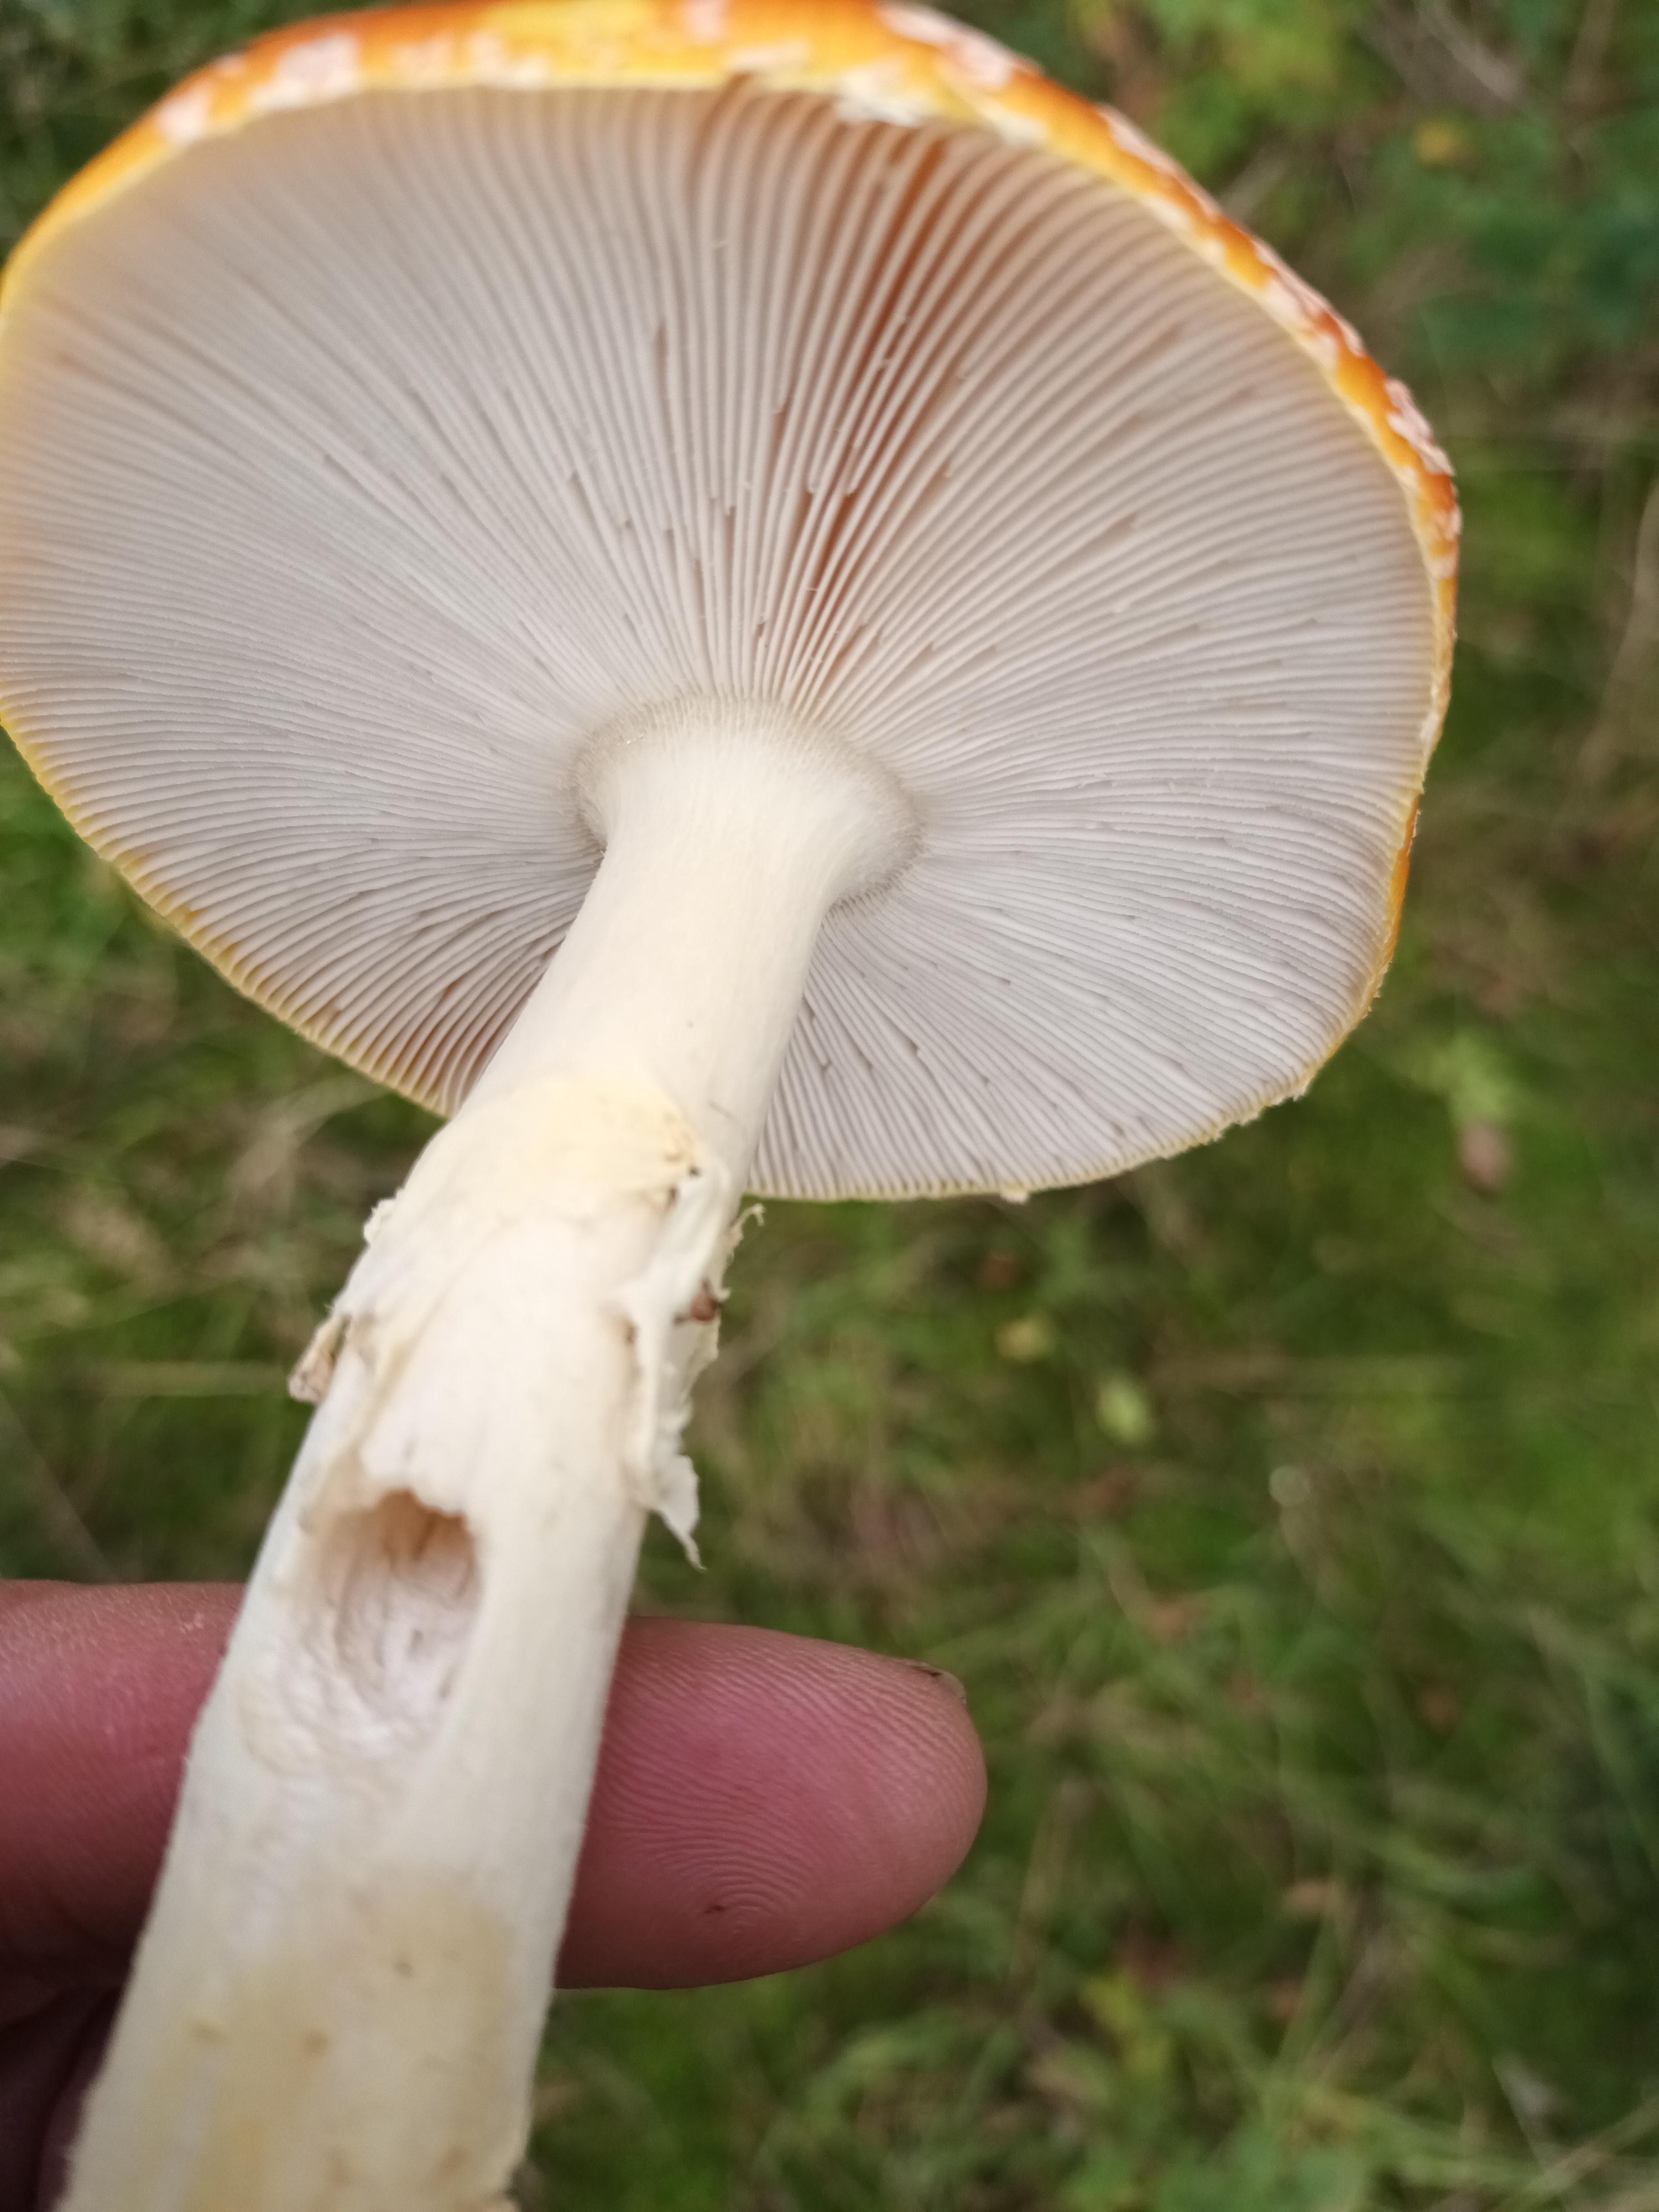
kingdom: Fungi
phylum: Basidiomycota
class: Agaricomycetes
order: Agaricales
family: Amanitaceae
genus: Amanita
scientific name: Amanita muscaria
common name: rød fluesvamp
